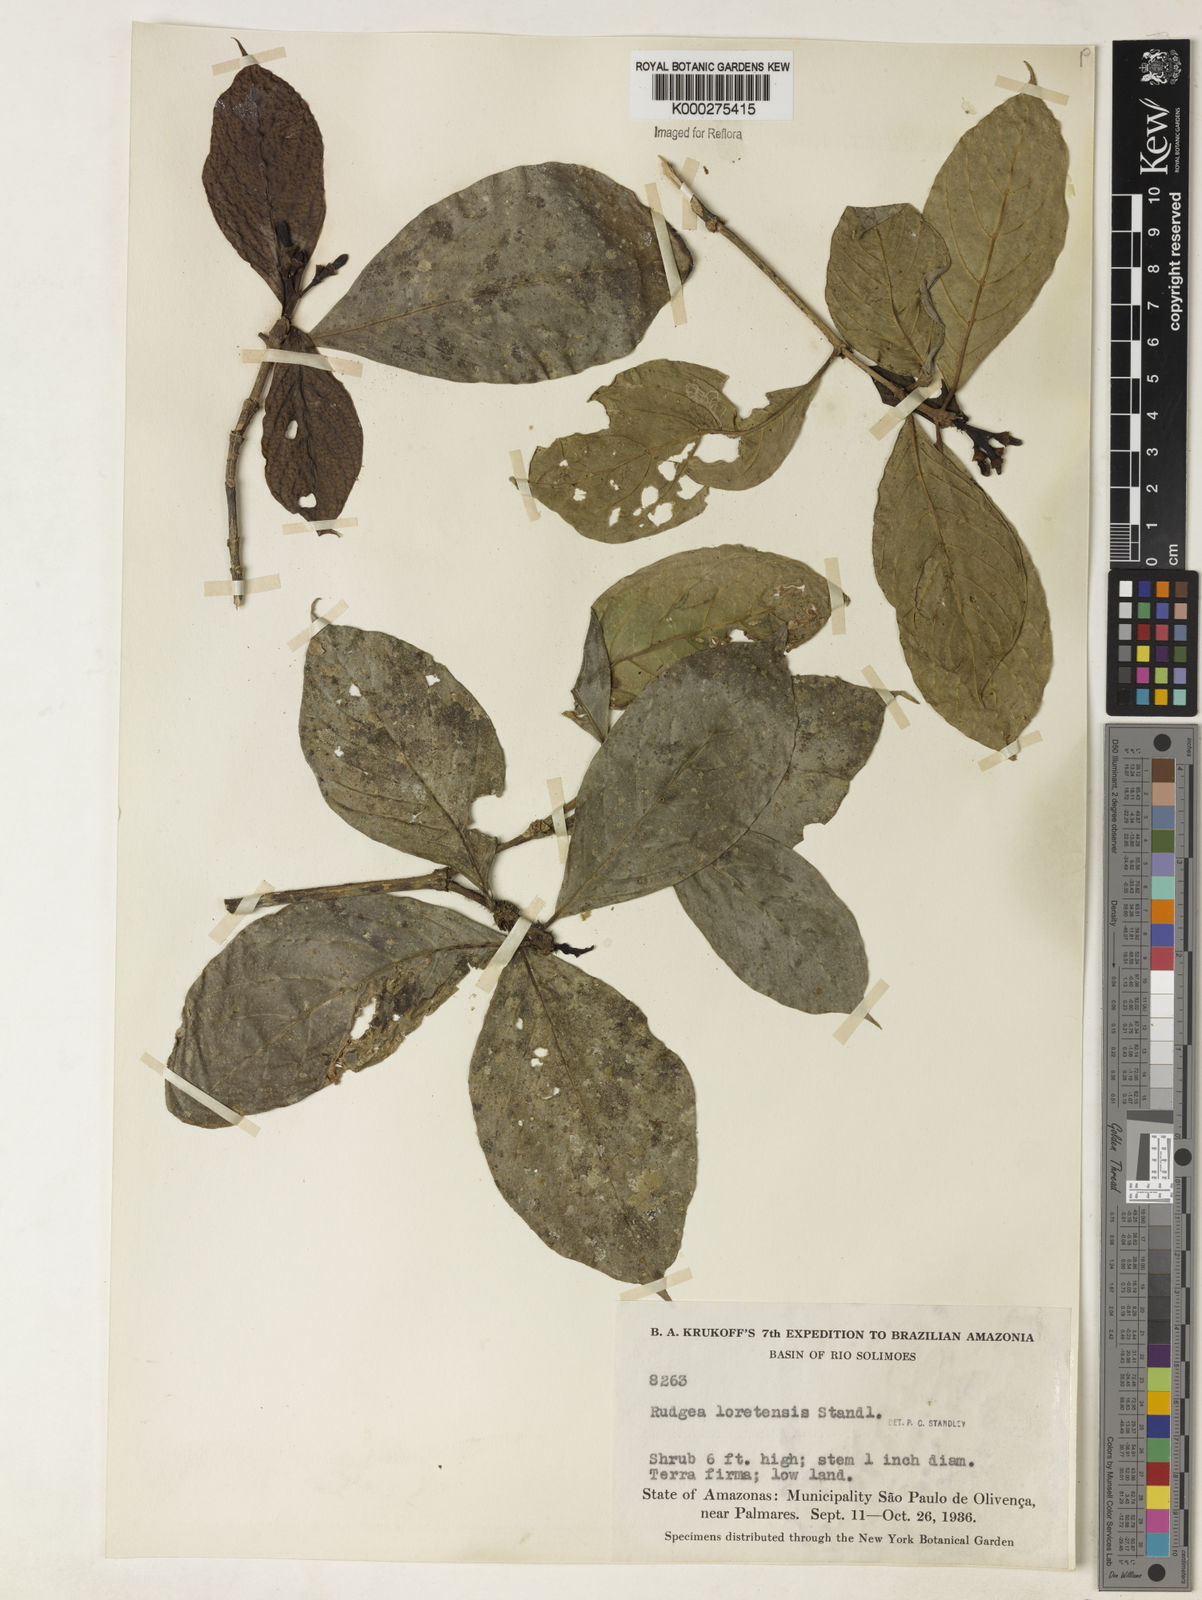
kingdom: Plantae
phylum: Tracheophyta
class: Magnoliopsida
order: Gentianales
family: Rubiaceae
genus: Rudgea
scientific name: Rudgea loretensis
